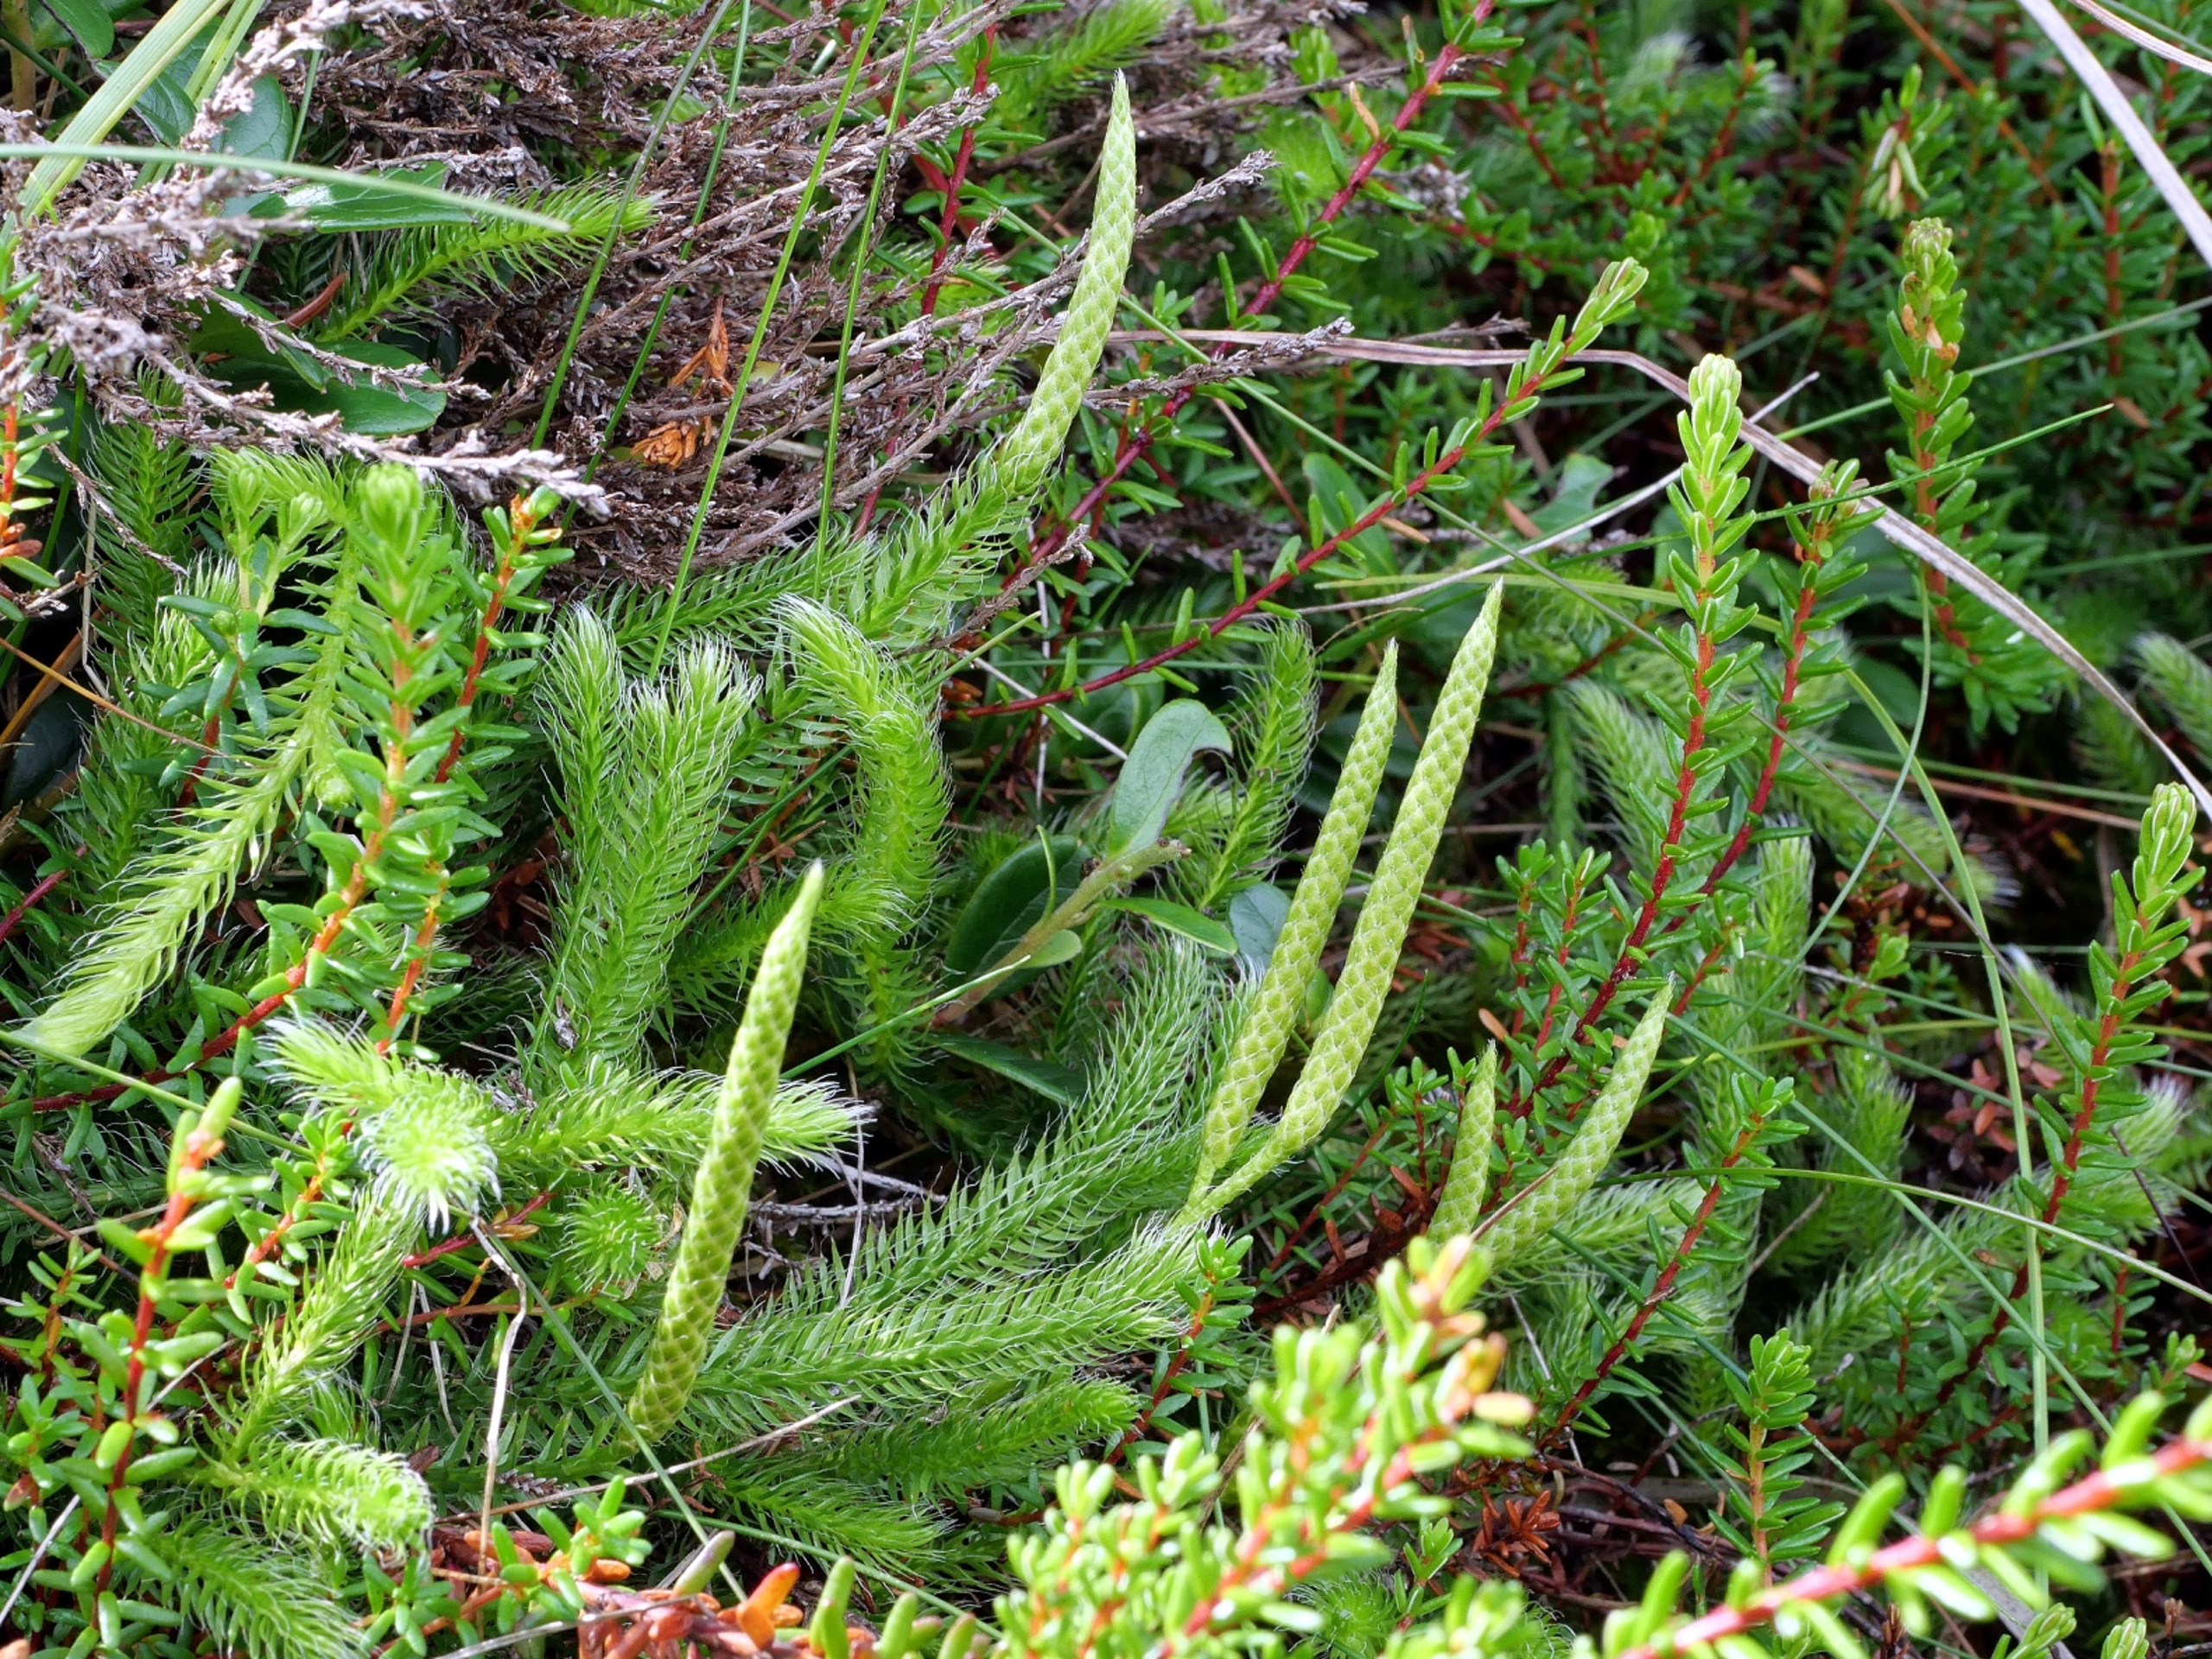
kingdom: Plantae
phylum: Tracheophyta
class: Lycopodiopsida
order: Lycopodiales
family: Lycopodiaceae
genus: Lycopodium
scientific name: Lycopodium clavatum
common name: Almindelig ulvefod
